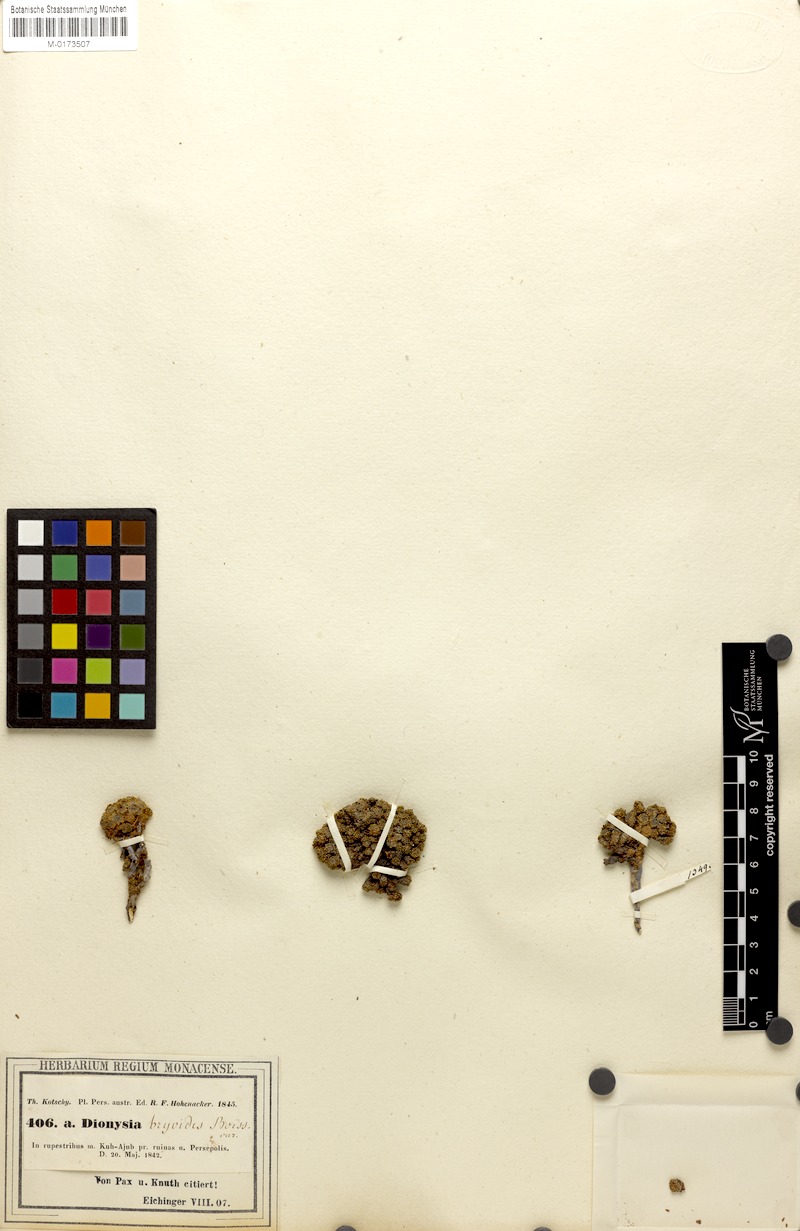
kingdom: Plantae
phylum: Tracheophyta
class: Magnoliopsida
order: Ericales
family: Primulaceae
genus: Dionysia
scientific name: Dionysia bryoides
